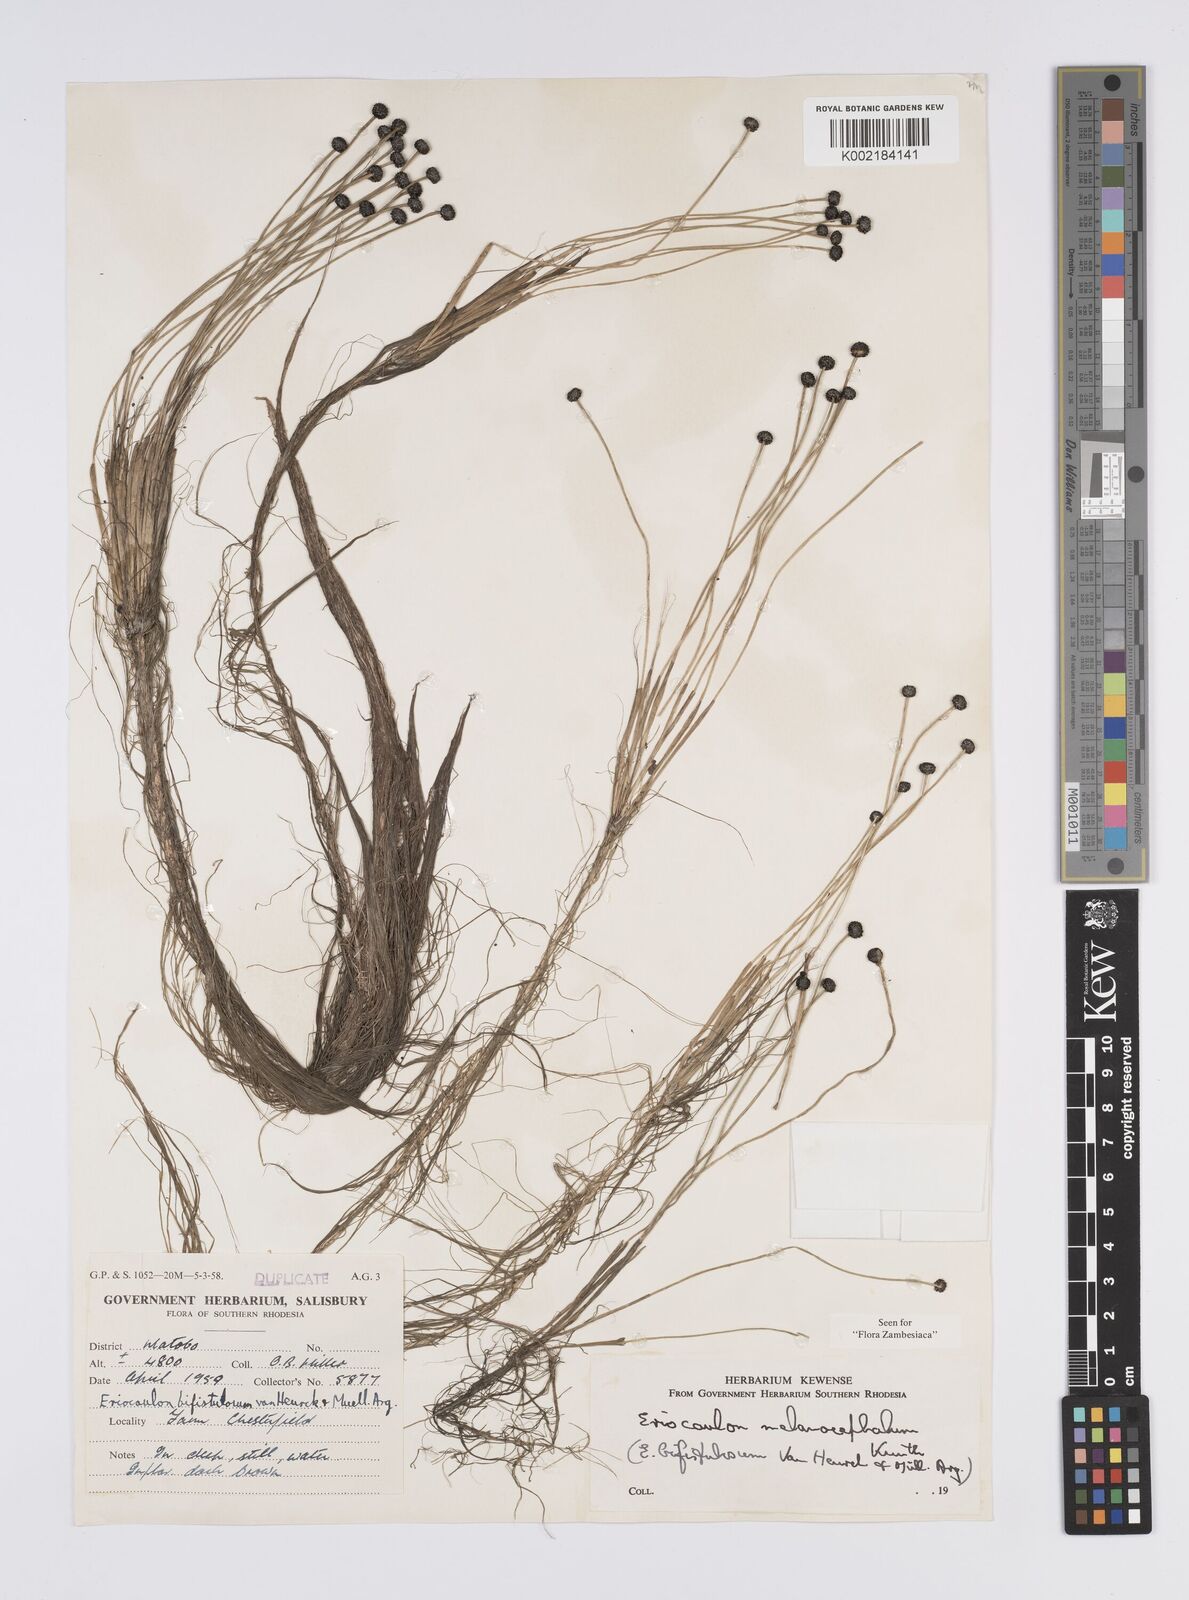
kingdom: Plantae
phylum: Tracheophyta
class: Liliopsida
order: Poales
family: Eriocaulaceae
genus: Eriocaulon
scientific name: Eriocaulon setaceum
